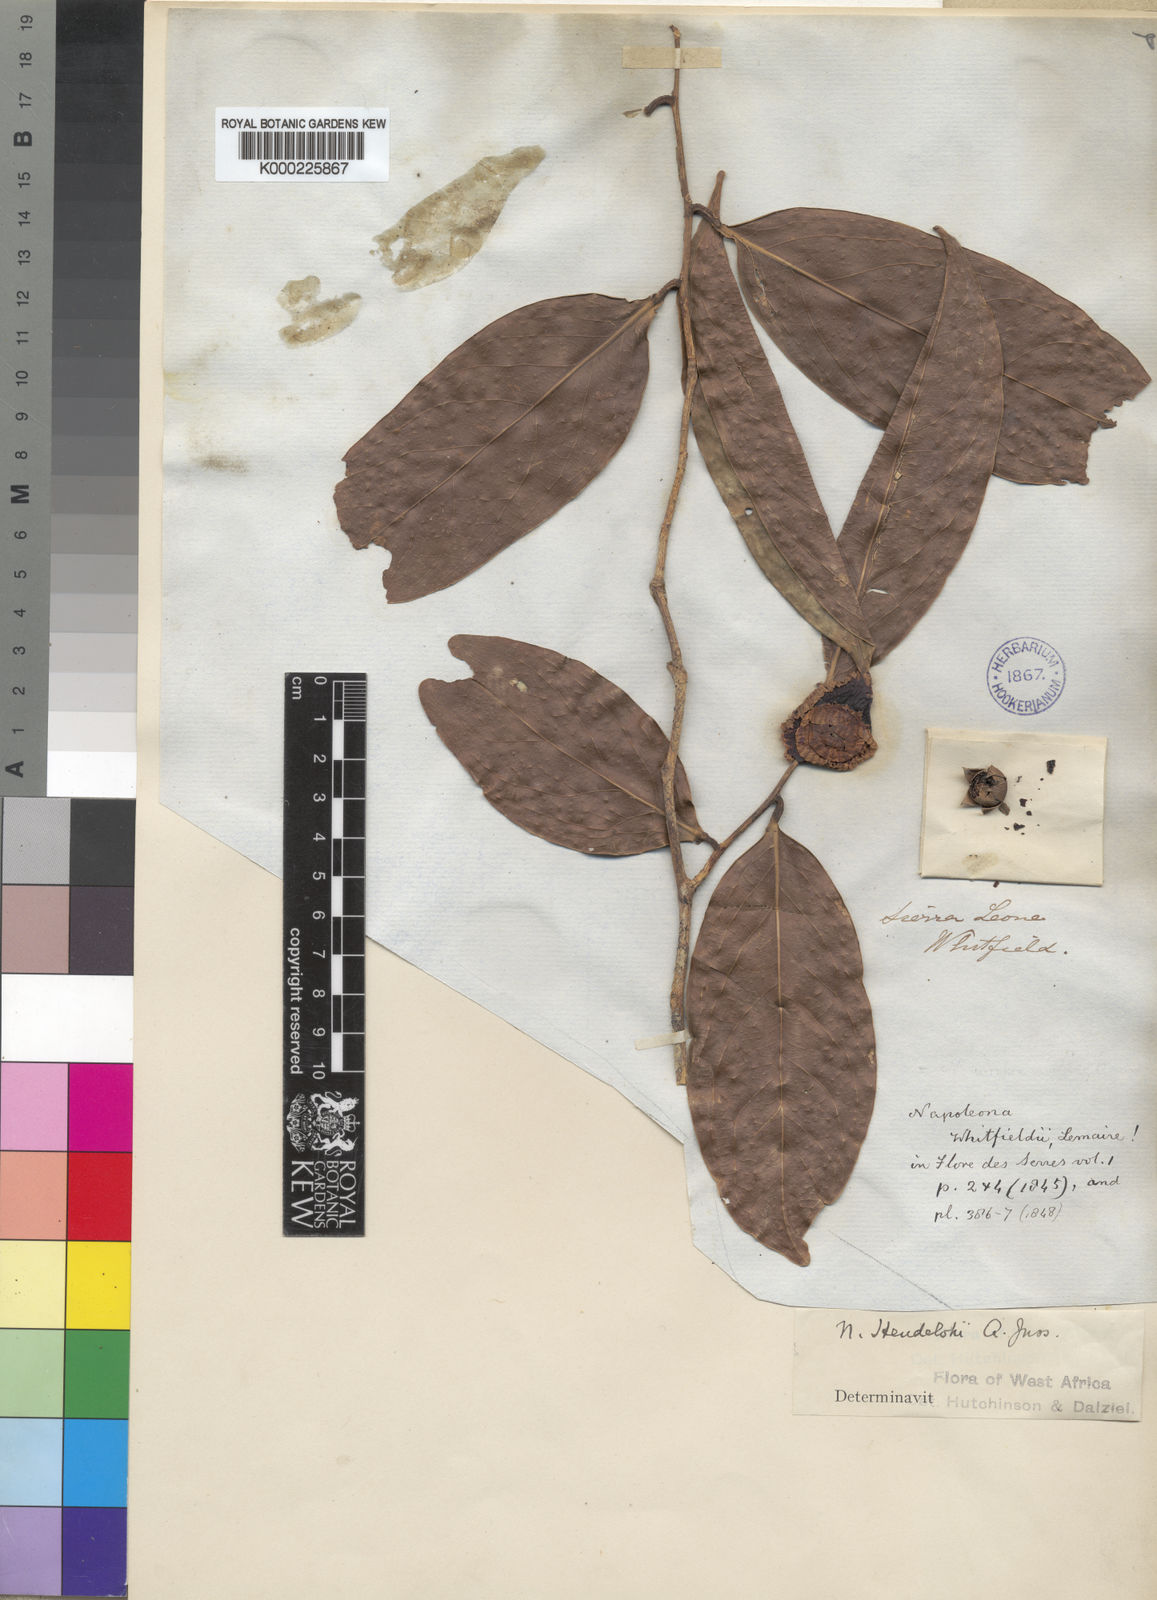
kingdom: Plantae
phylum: Tracheophyta
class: Magnoliopsida
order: Ericales
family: Lecythidaceae
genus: Napoleonaea
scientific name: Napoleonaea heudelotii
